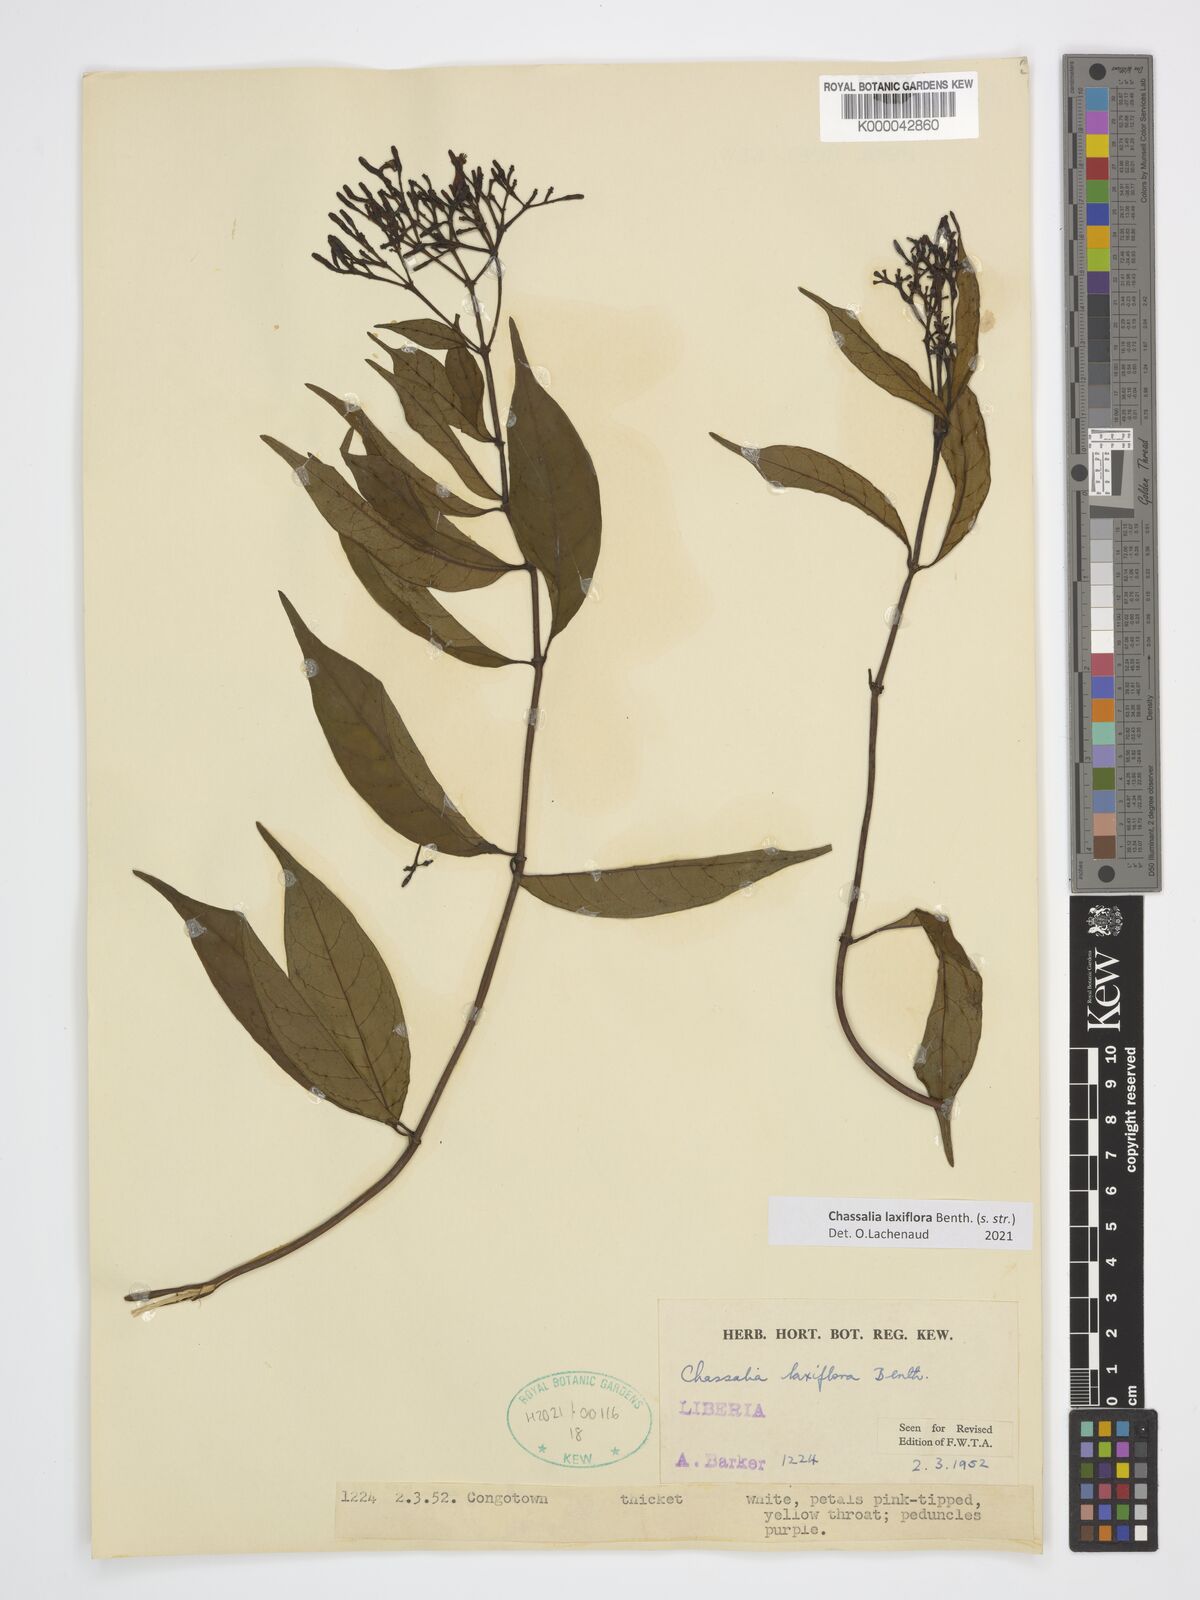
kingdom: Plantae
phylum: Tracheophyta
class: Magnoliopsida
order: Gentianales
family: Rubiaceae
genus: Chassalia
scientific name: Chassalia laxiflora
